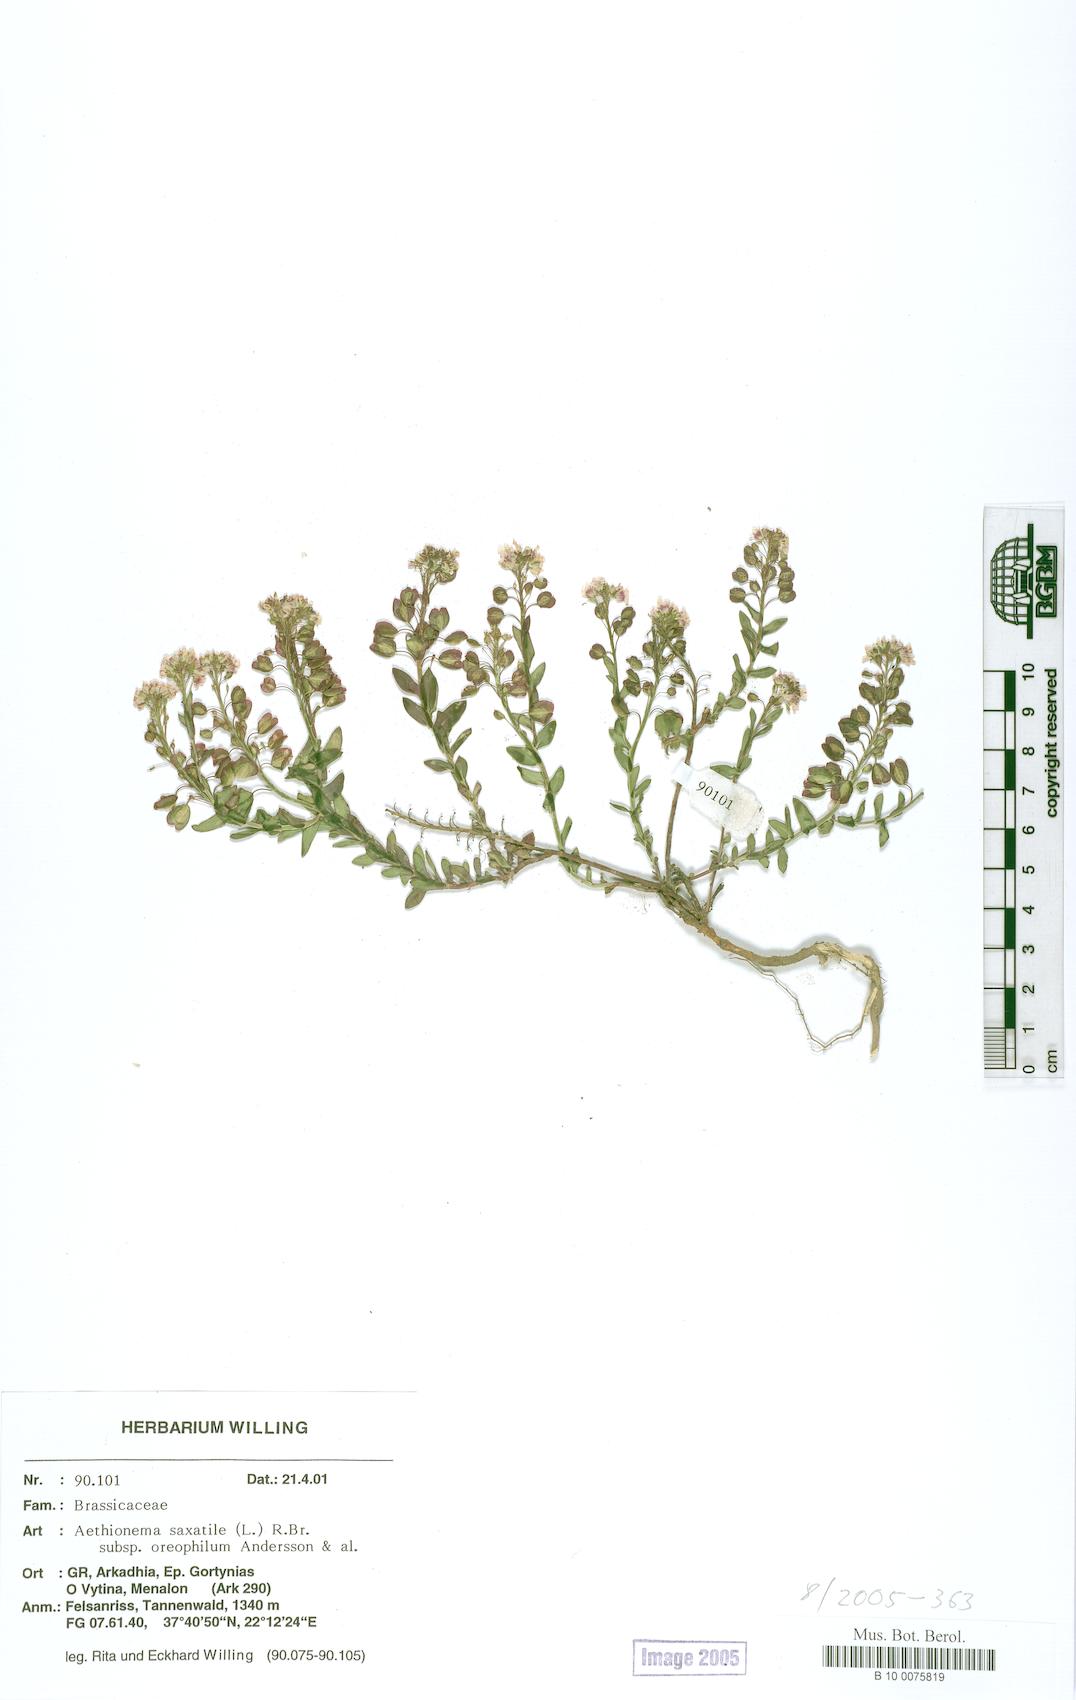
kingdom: Plantae
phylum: Tracheophyta
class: Magnoliopsida
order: Brassicales
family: Brassicaceae
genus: Aethionema
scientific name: Aethionema saxatile
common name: Burnt candytuft
